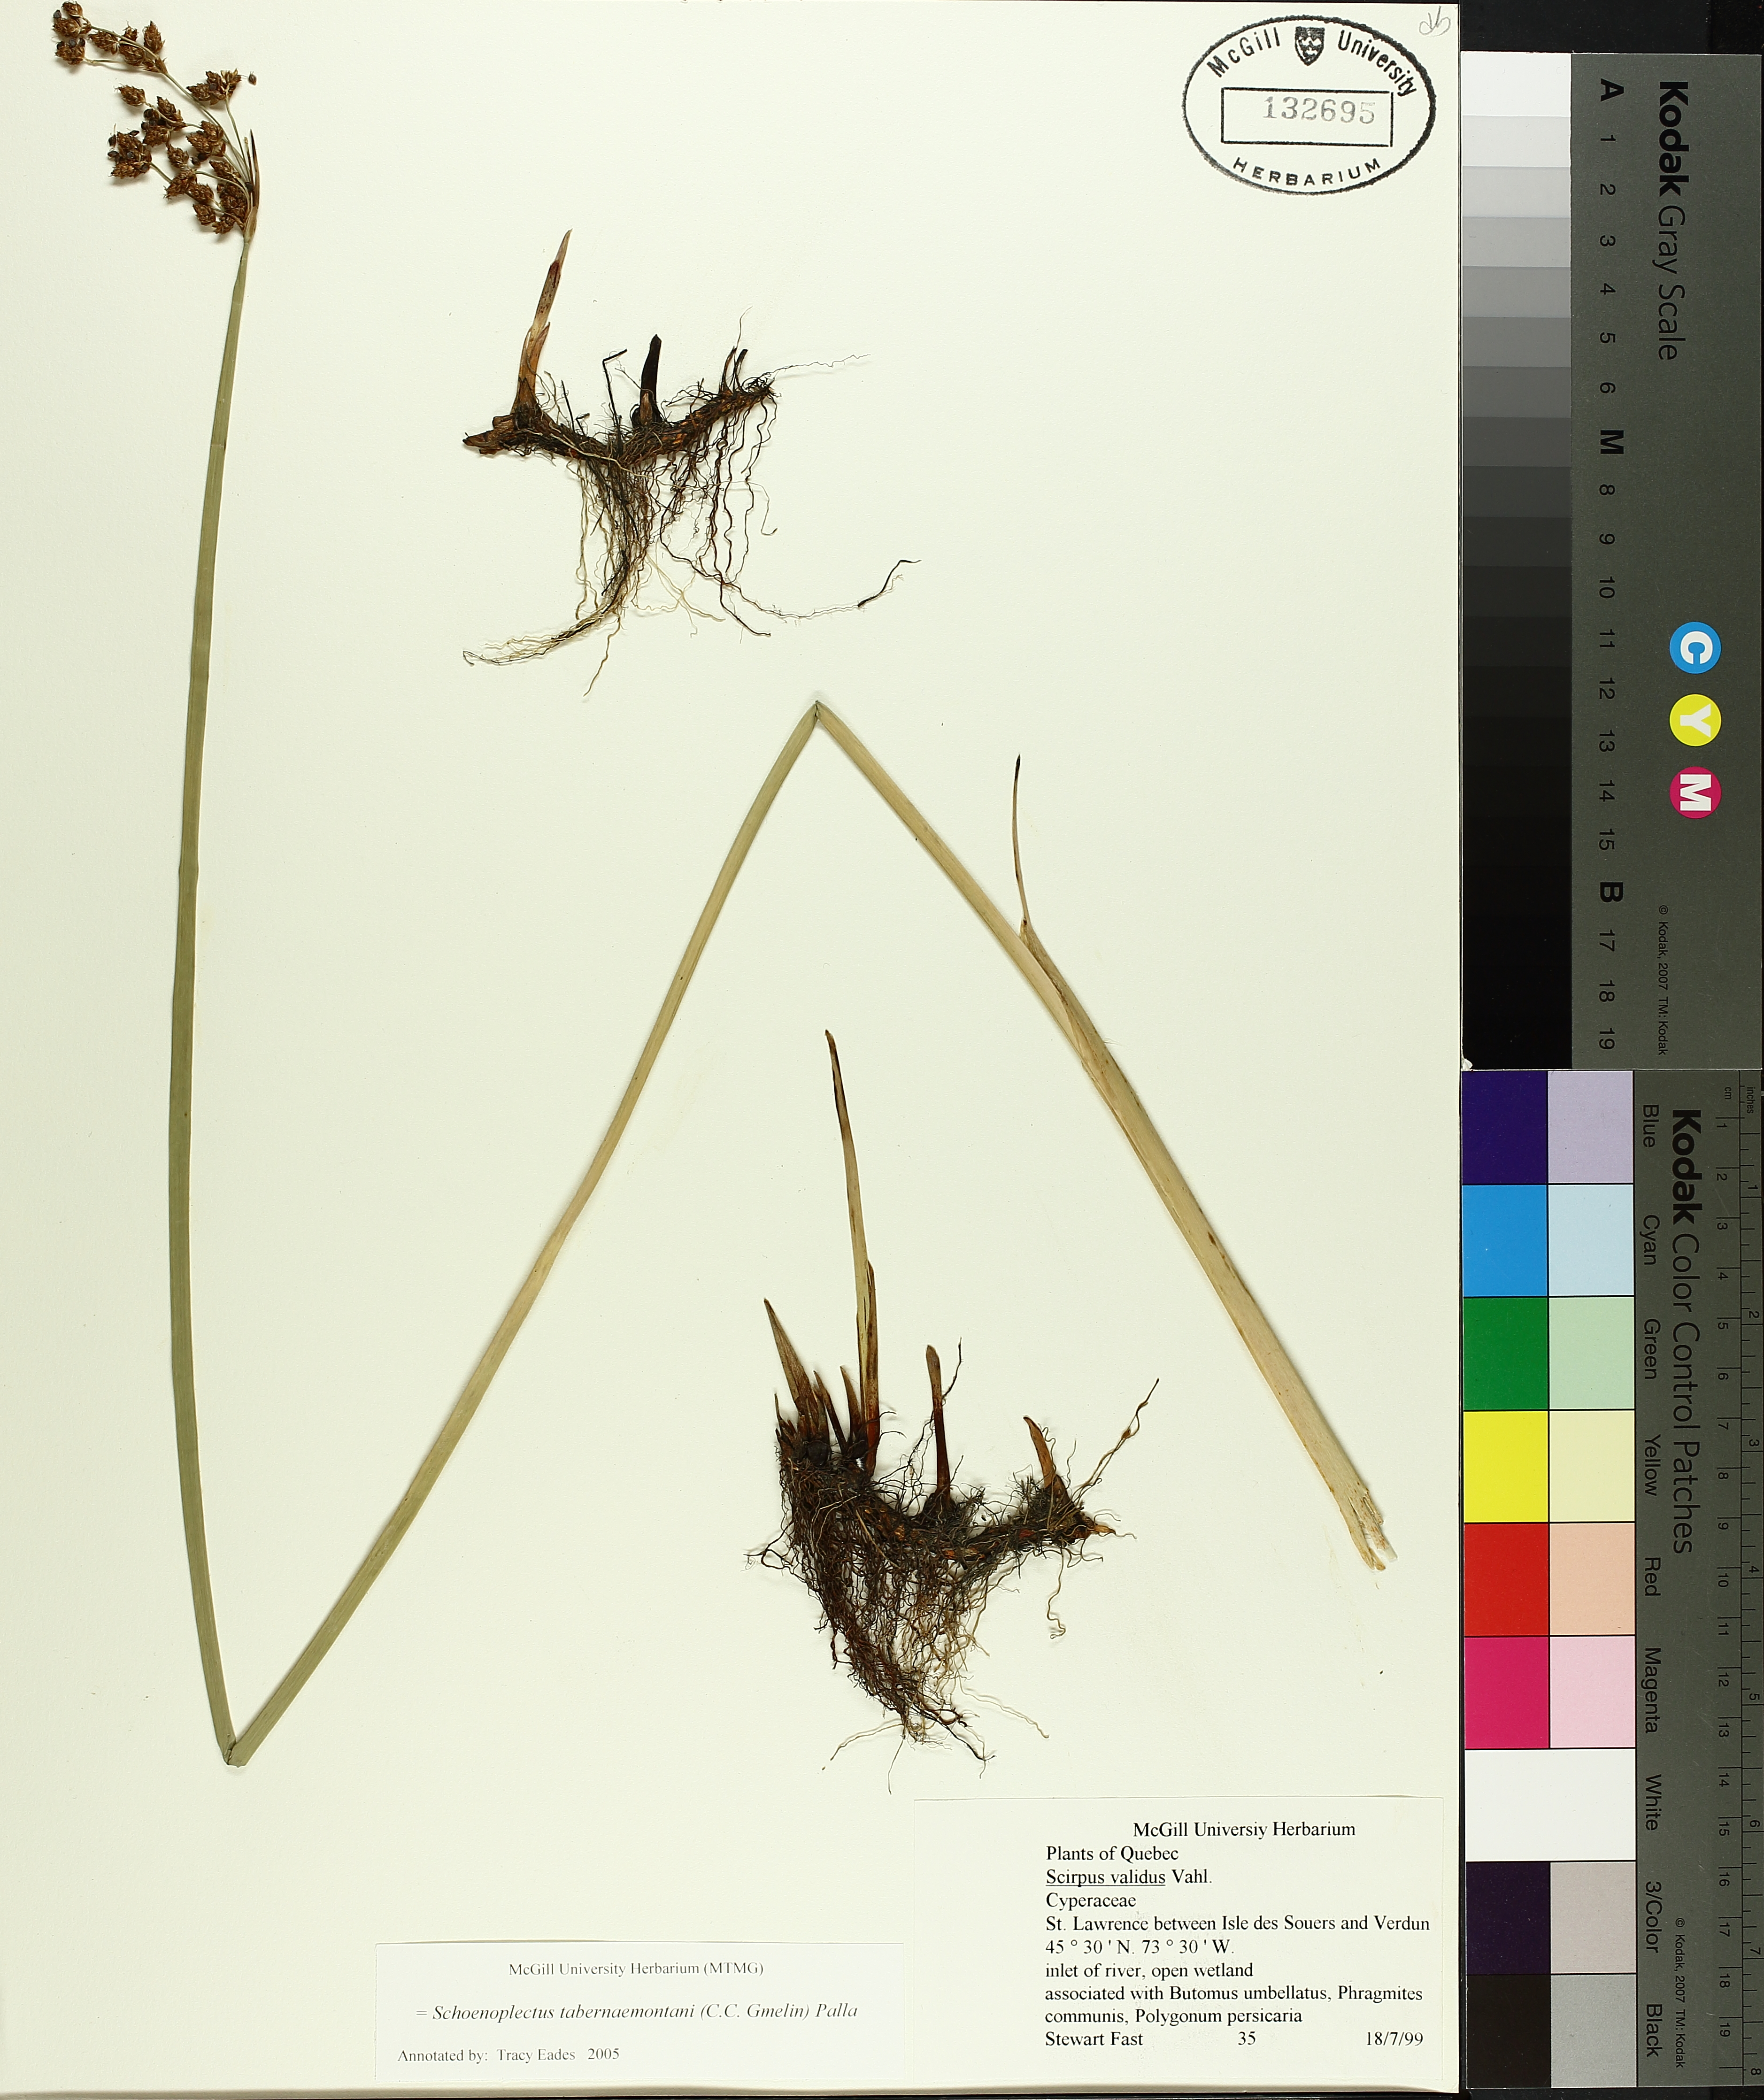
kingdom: Plantae
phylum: Tracheophyta
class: Liliopsida
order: Poales
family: Cyperaceae
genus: Schoenoplectus
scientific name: Schoenoplectus tabernaemontani
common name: Grey club-rush
